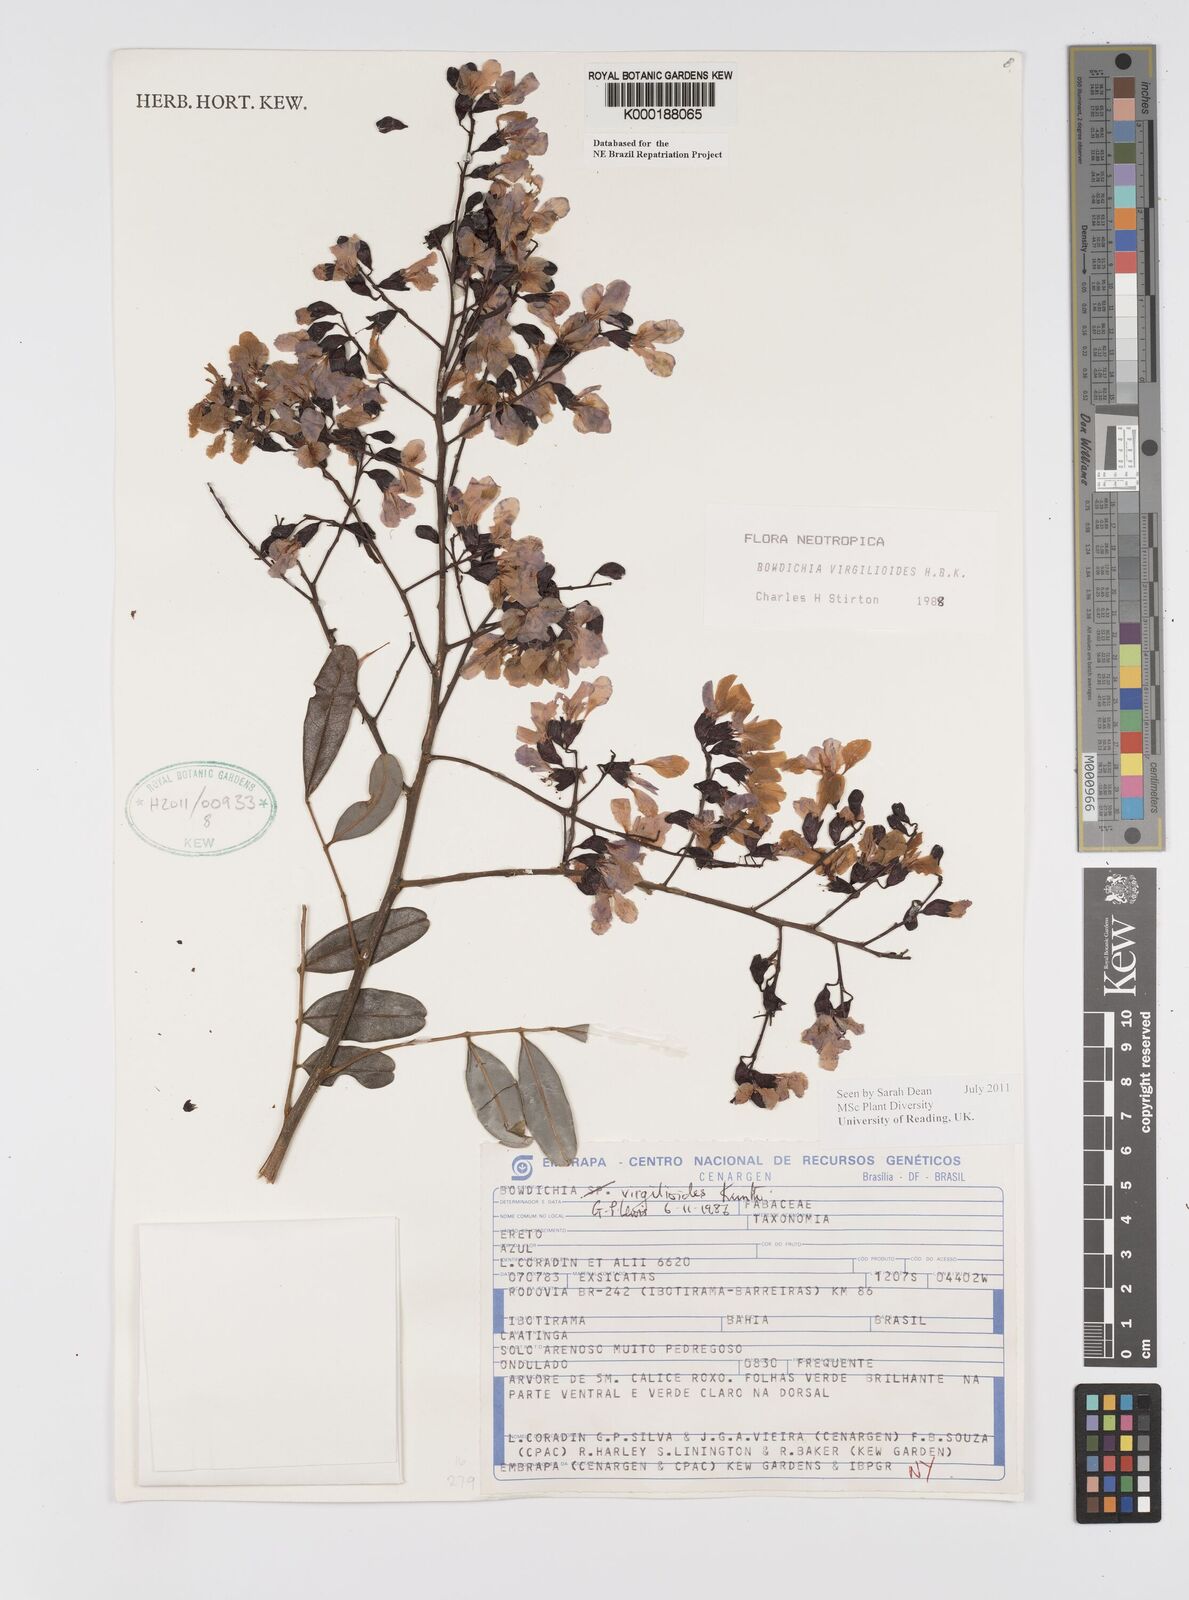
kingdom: Plantae
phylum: Tracheophyta
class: Magnoliopsida
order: Fabales
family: Fabaceae
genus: Bowdichia
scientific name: Bowdichia virgilioides
